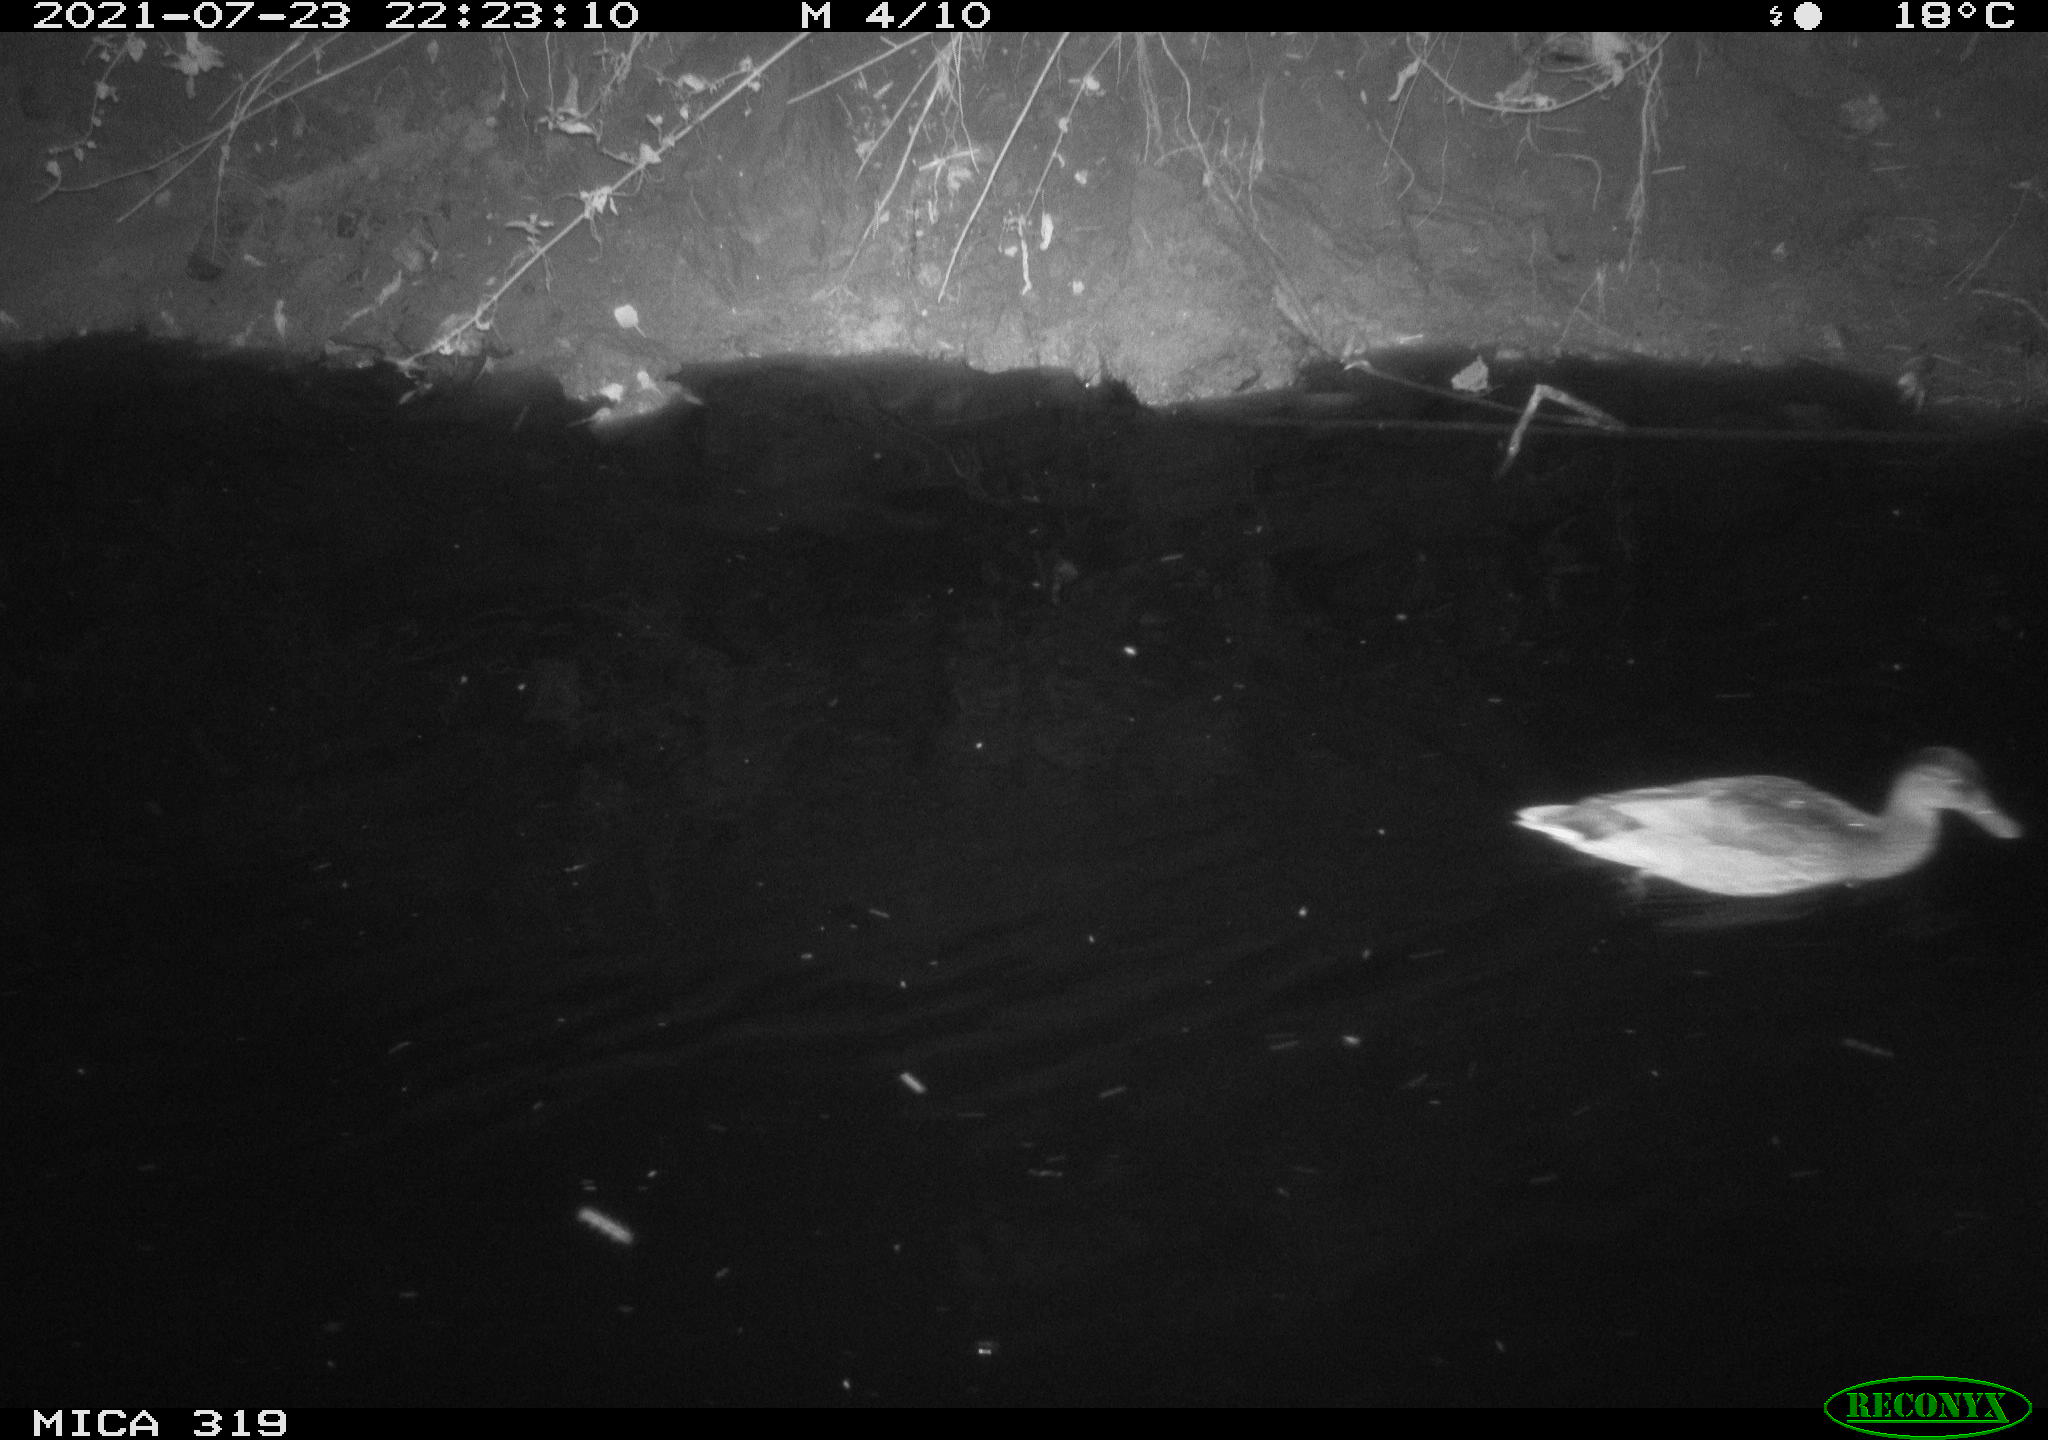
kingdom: Animalia
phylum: Chordata
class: Aves
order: Anseriformes
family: Anatidae
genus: Anas
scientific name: Anas platyrhynchos
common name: Mallard
